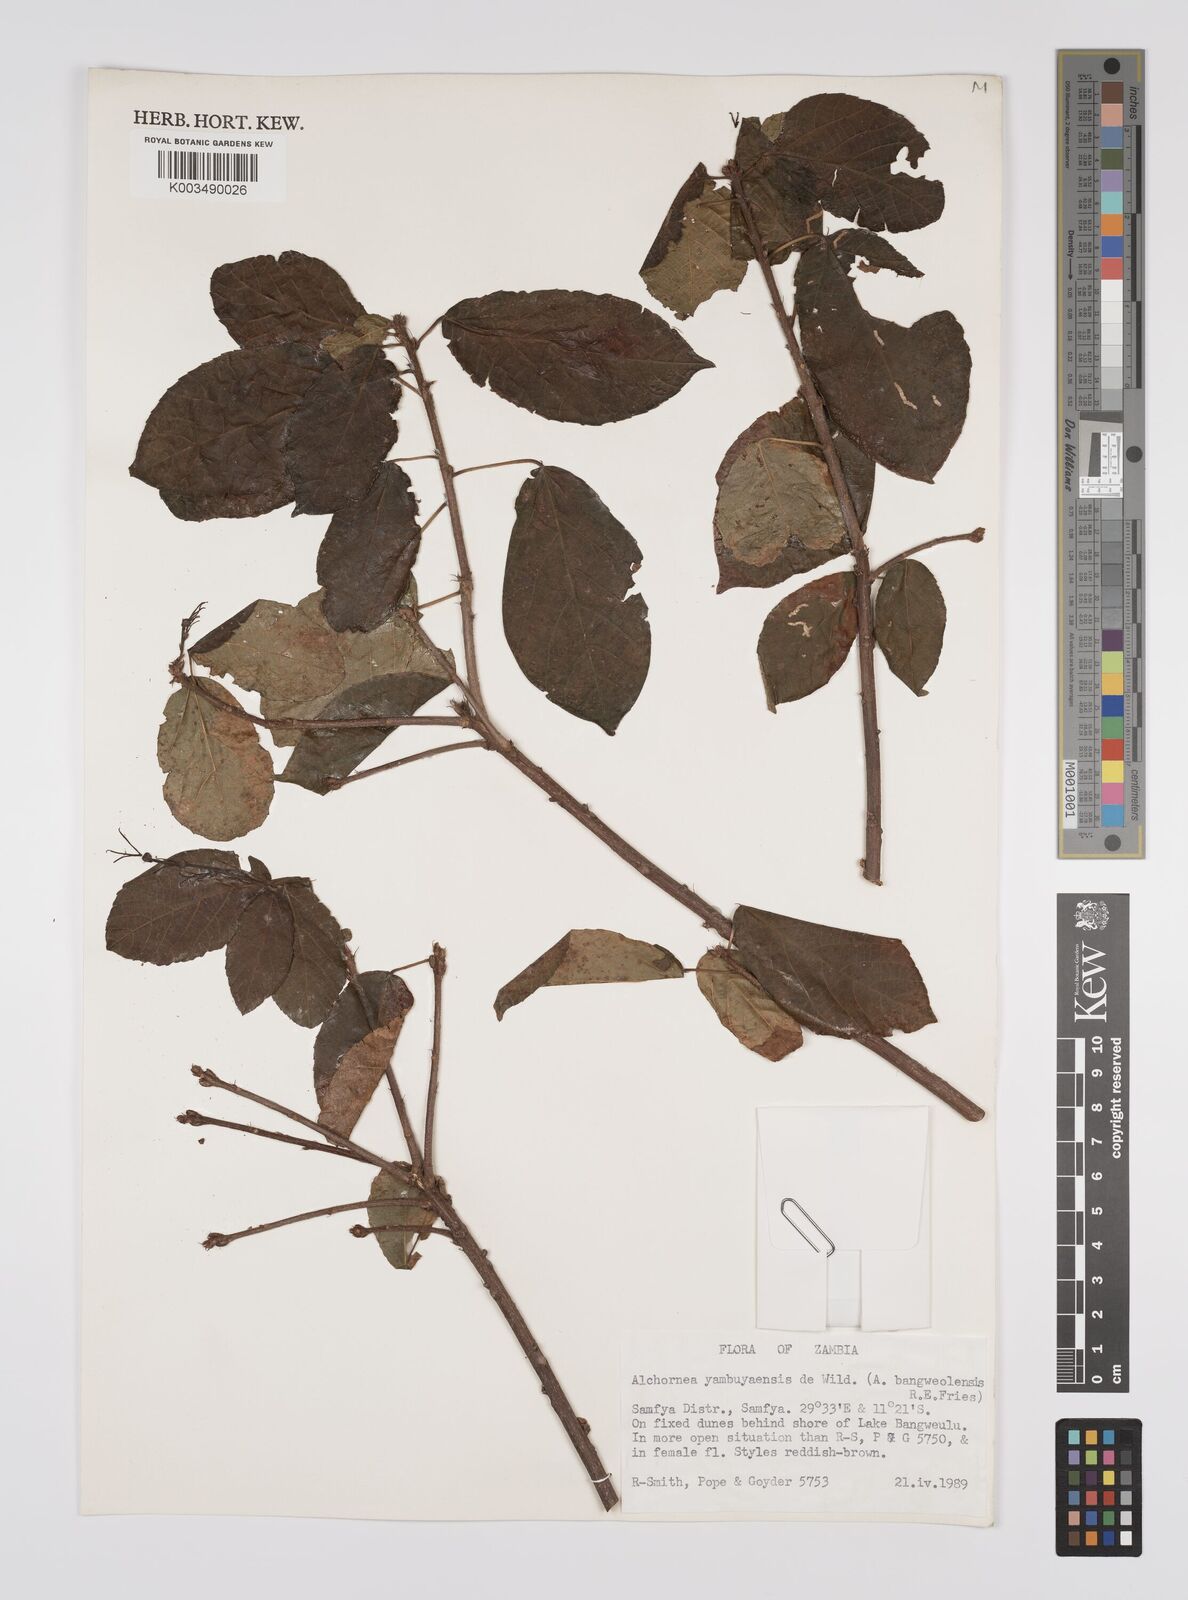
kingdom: Plantae
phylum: Tracheophyta
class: Magnoliopsida
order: Malpighiales
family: Euphorbiaceae
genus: Alchornea
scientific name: Alchornea yambuyaensis
